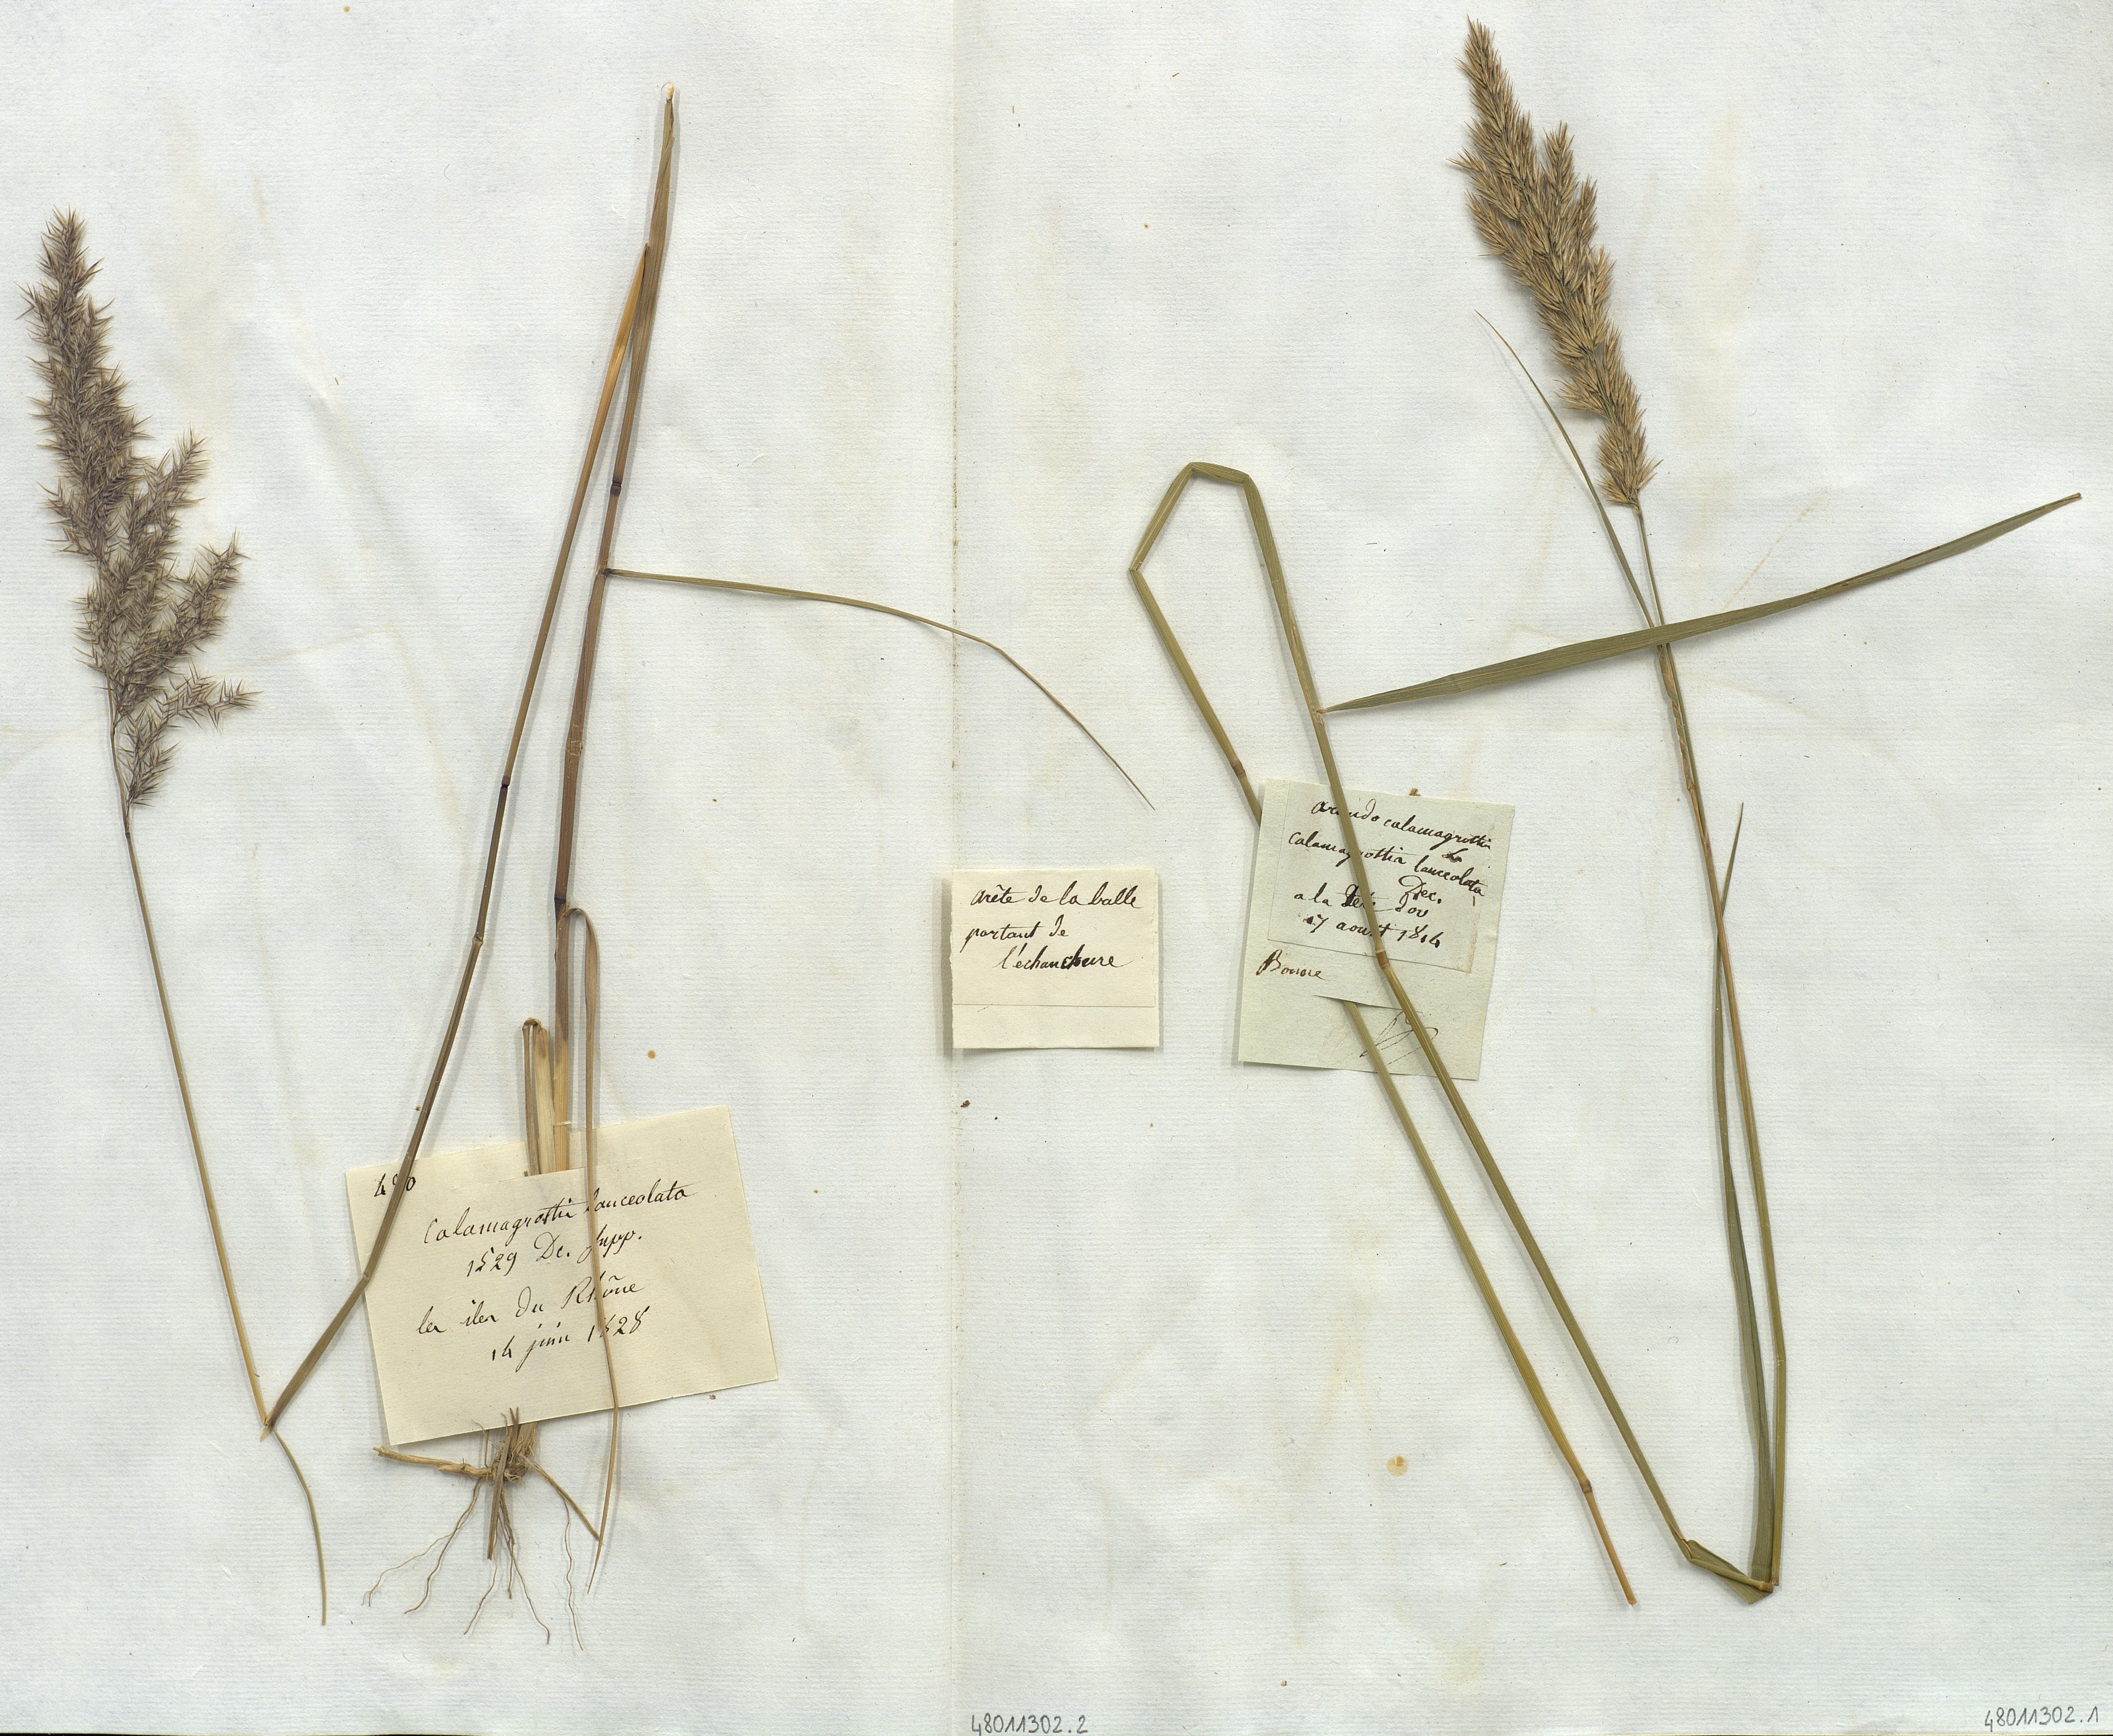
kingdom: Plantae
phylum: Tracheophyta
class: Liliopsida
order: Poales
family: Poaceae
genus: Calamagrostis
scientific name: Calamagrostis
